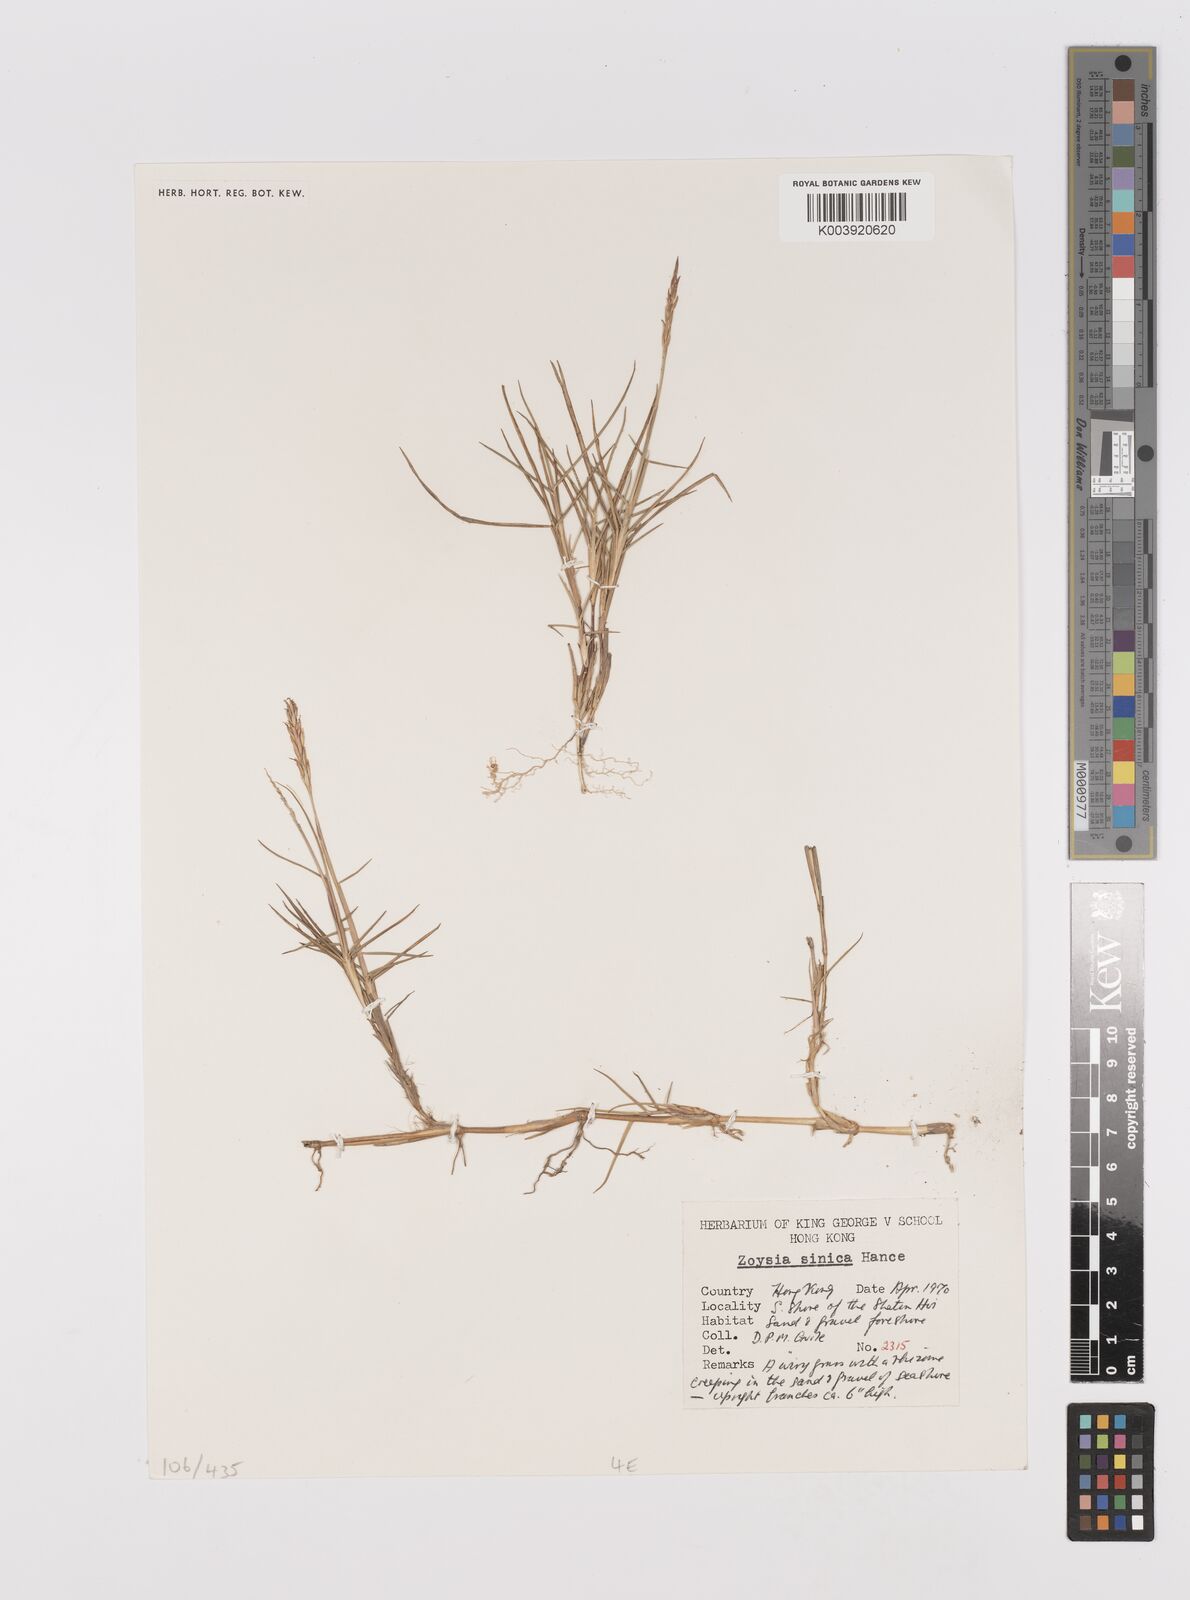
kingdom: Plantae
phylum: Tracheophyta
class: Liliopsida
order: Poales
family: Poaceae
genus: Zoysia
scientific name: Zoysia sinica
